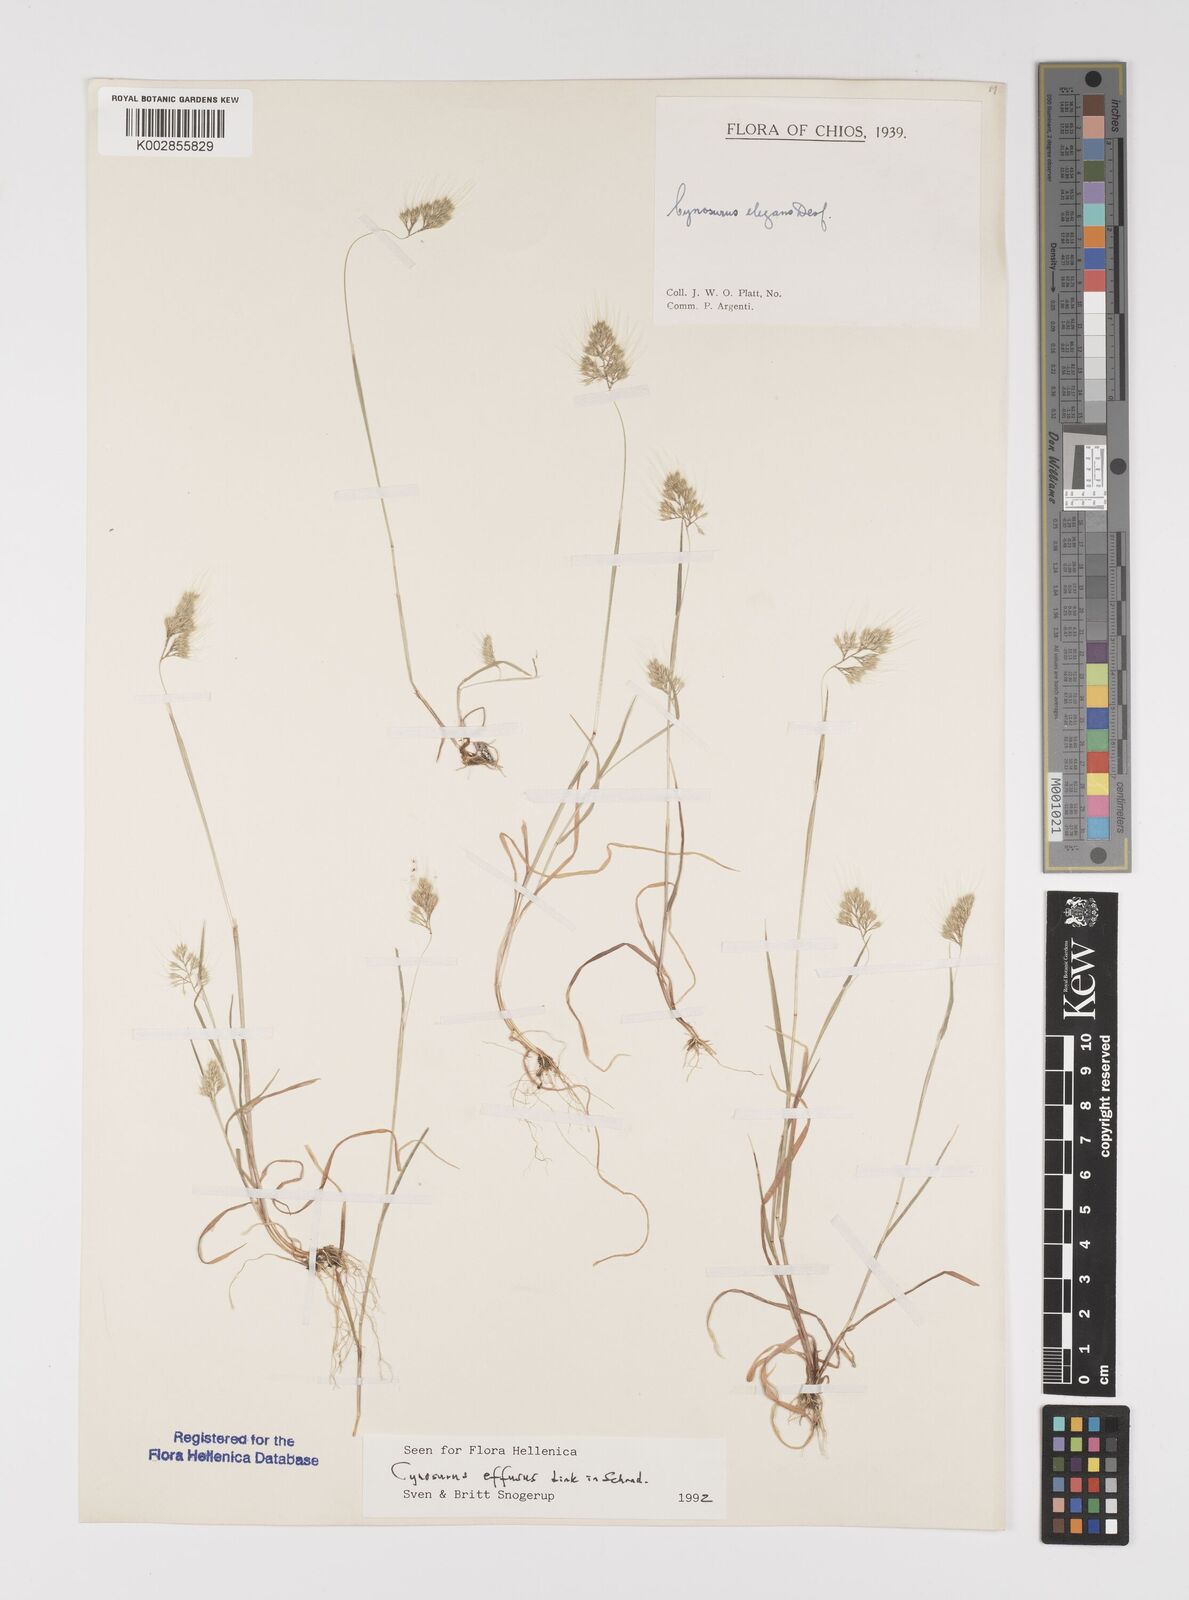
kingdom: Plantae
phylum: Tracheophyta
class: Liliopsida
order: Poales
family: Poaceae
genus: Cynosurus
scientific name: Cynosurus elegans
